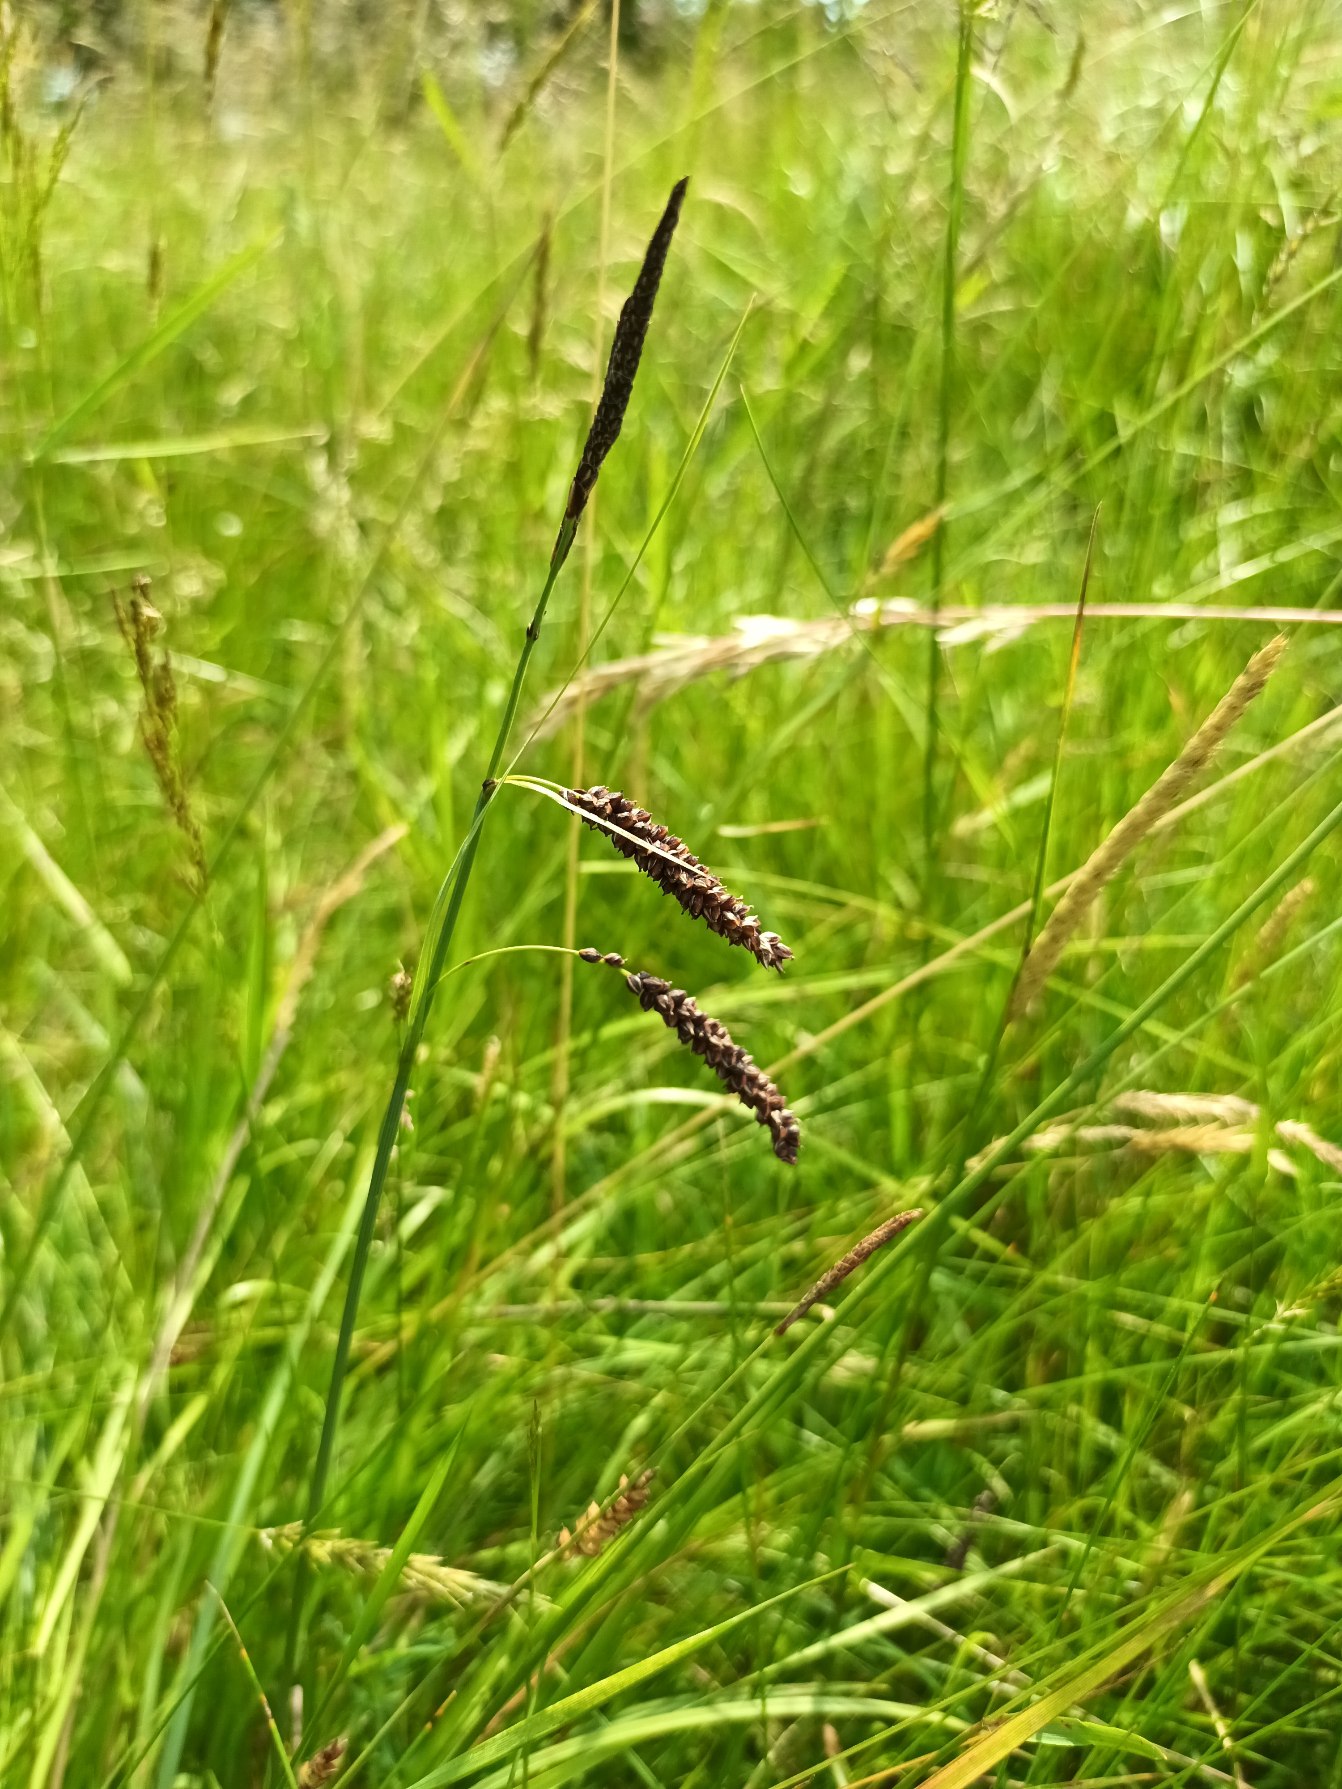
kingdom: Plantae
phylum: Tracheophyta
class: Liliopsida
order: Poales
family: Cyperaceae
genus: Carex
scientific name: Carex flacca
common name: Blågrøn star
